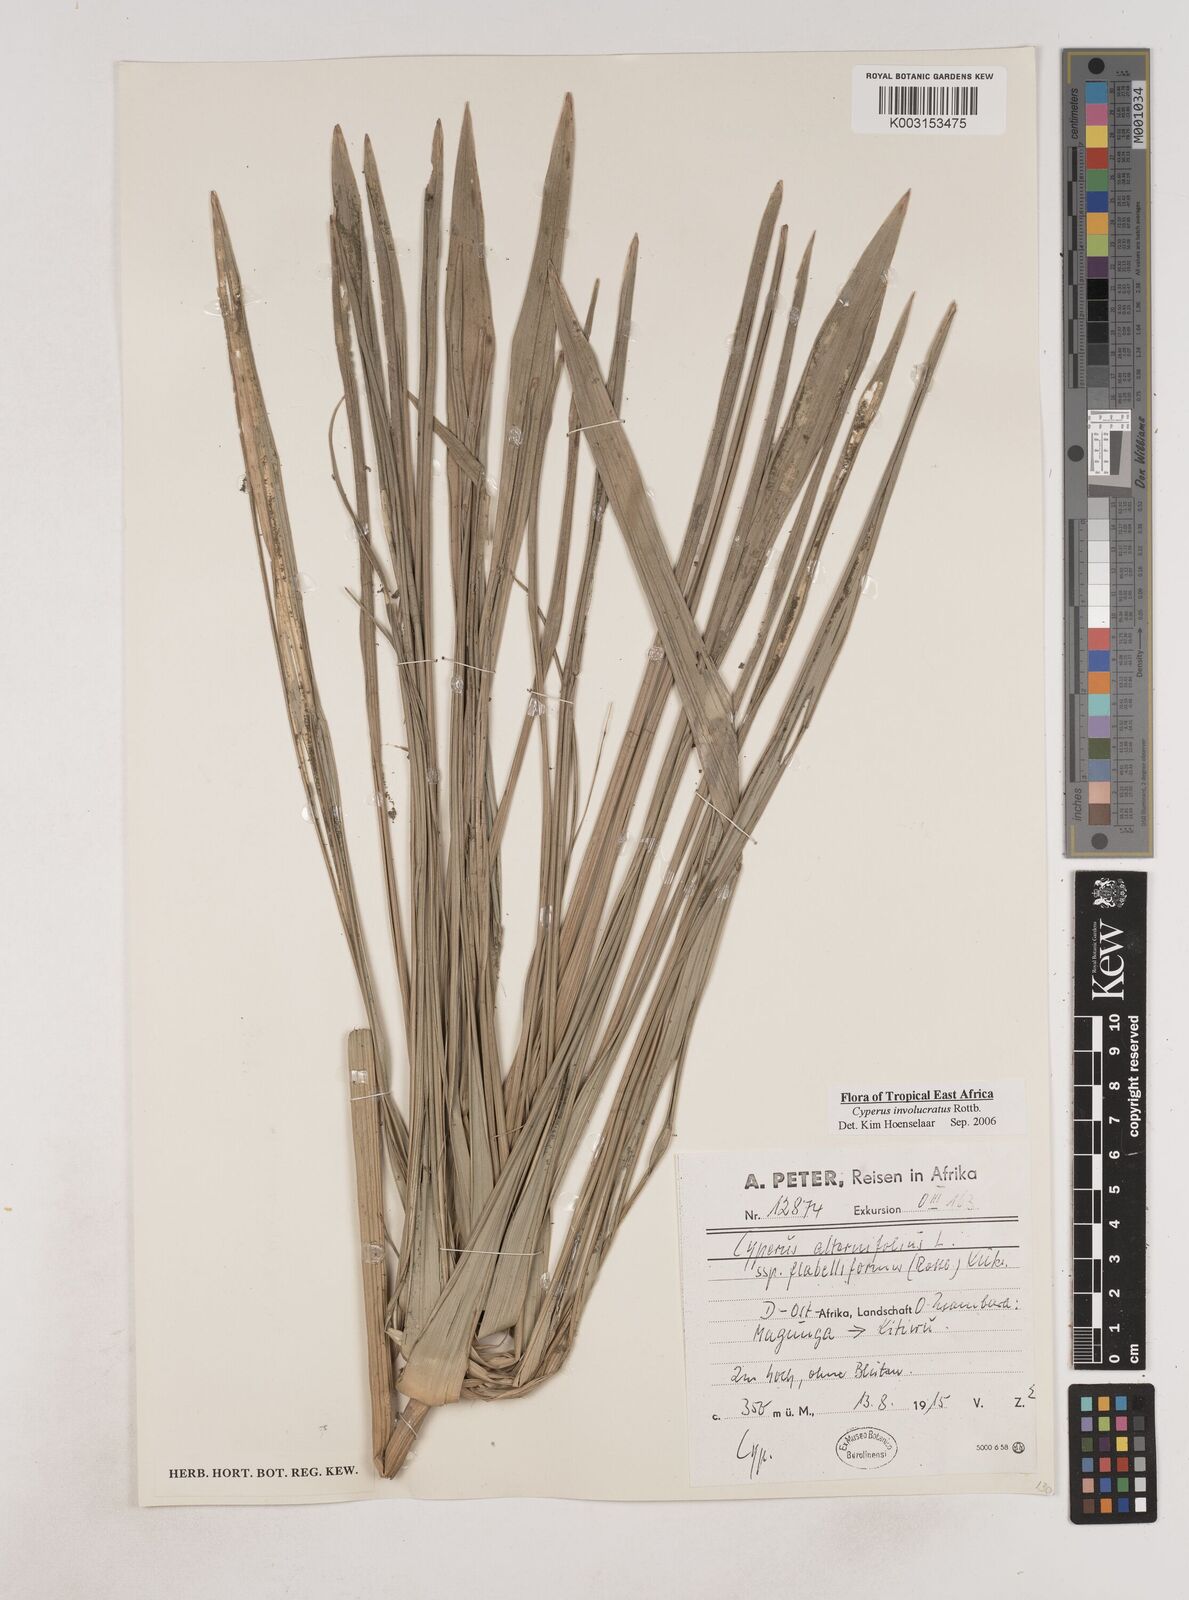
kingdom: Plantae
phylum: Tracheophyta
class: Liliopsida
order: Poales
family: Cyperaceae
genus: Cyperus
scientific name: Cyperus alternifolius
